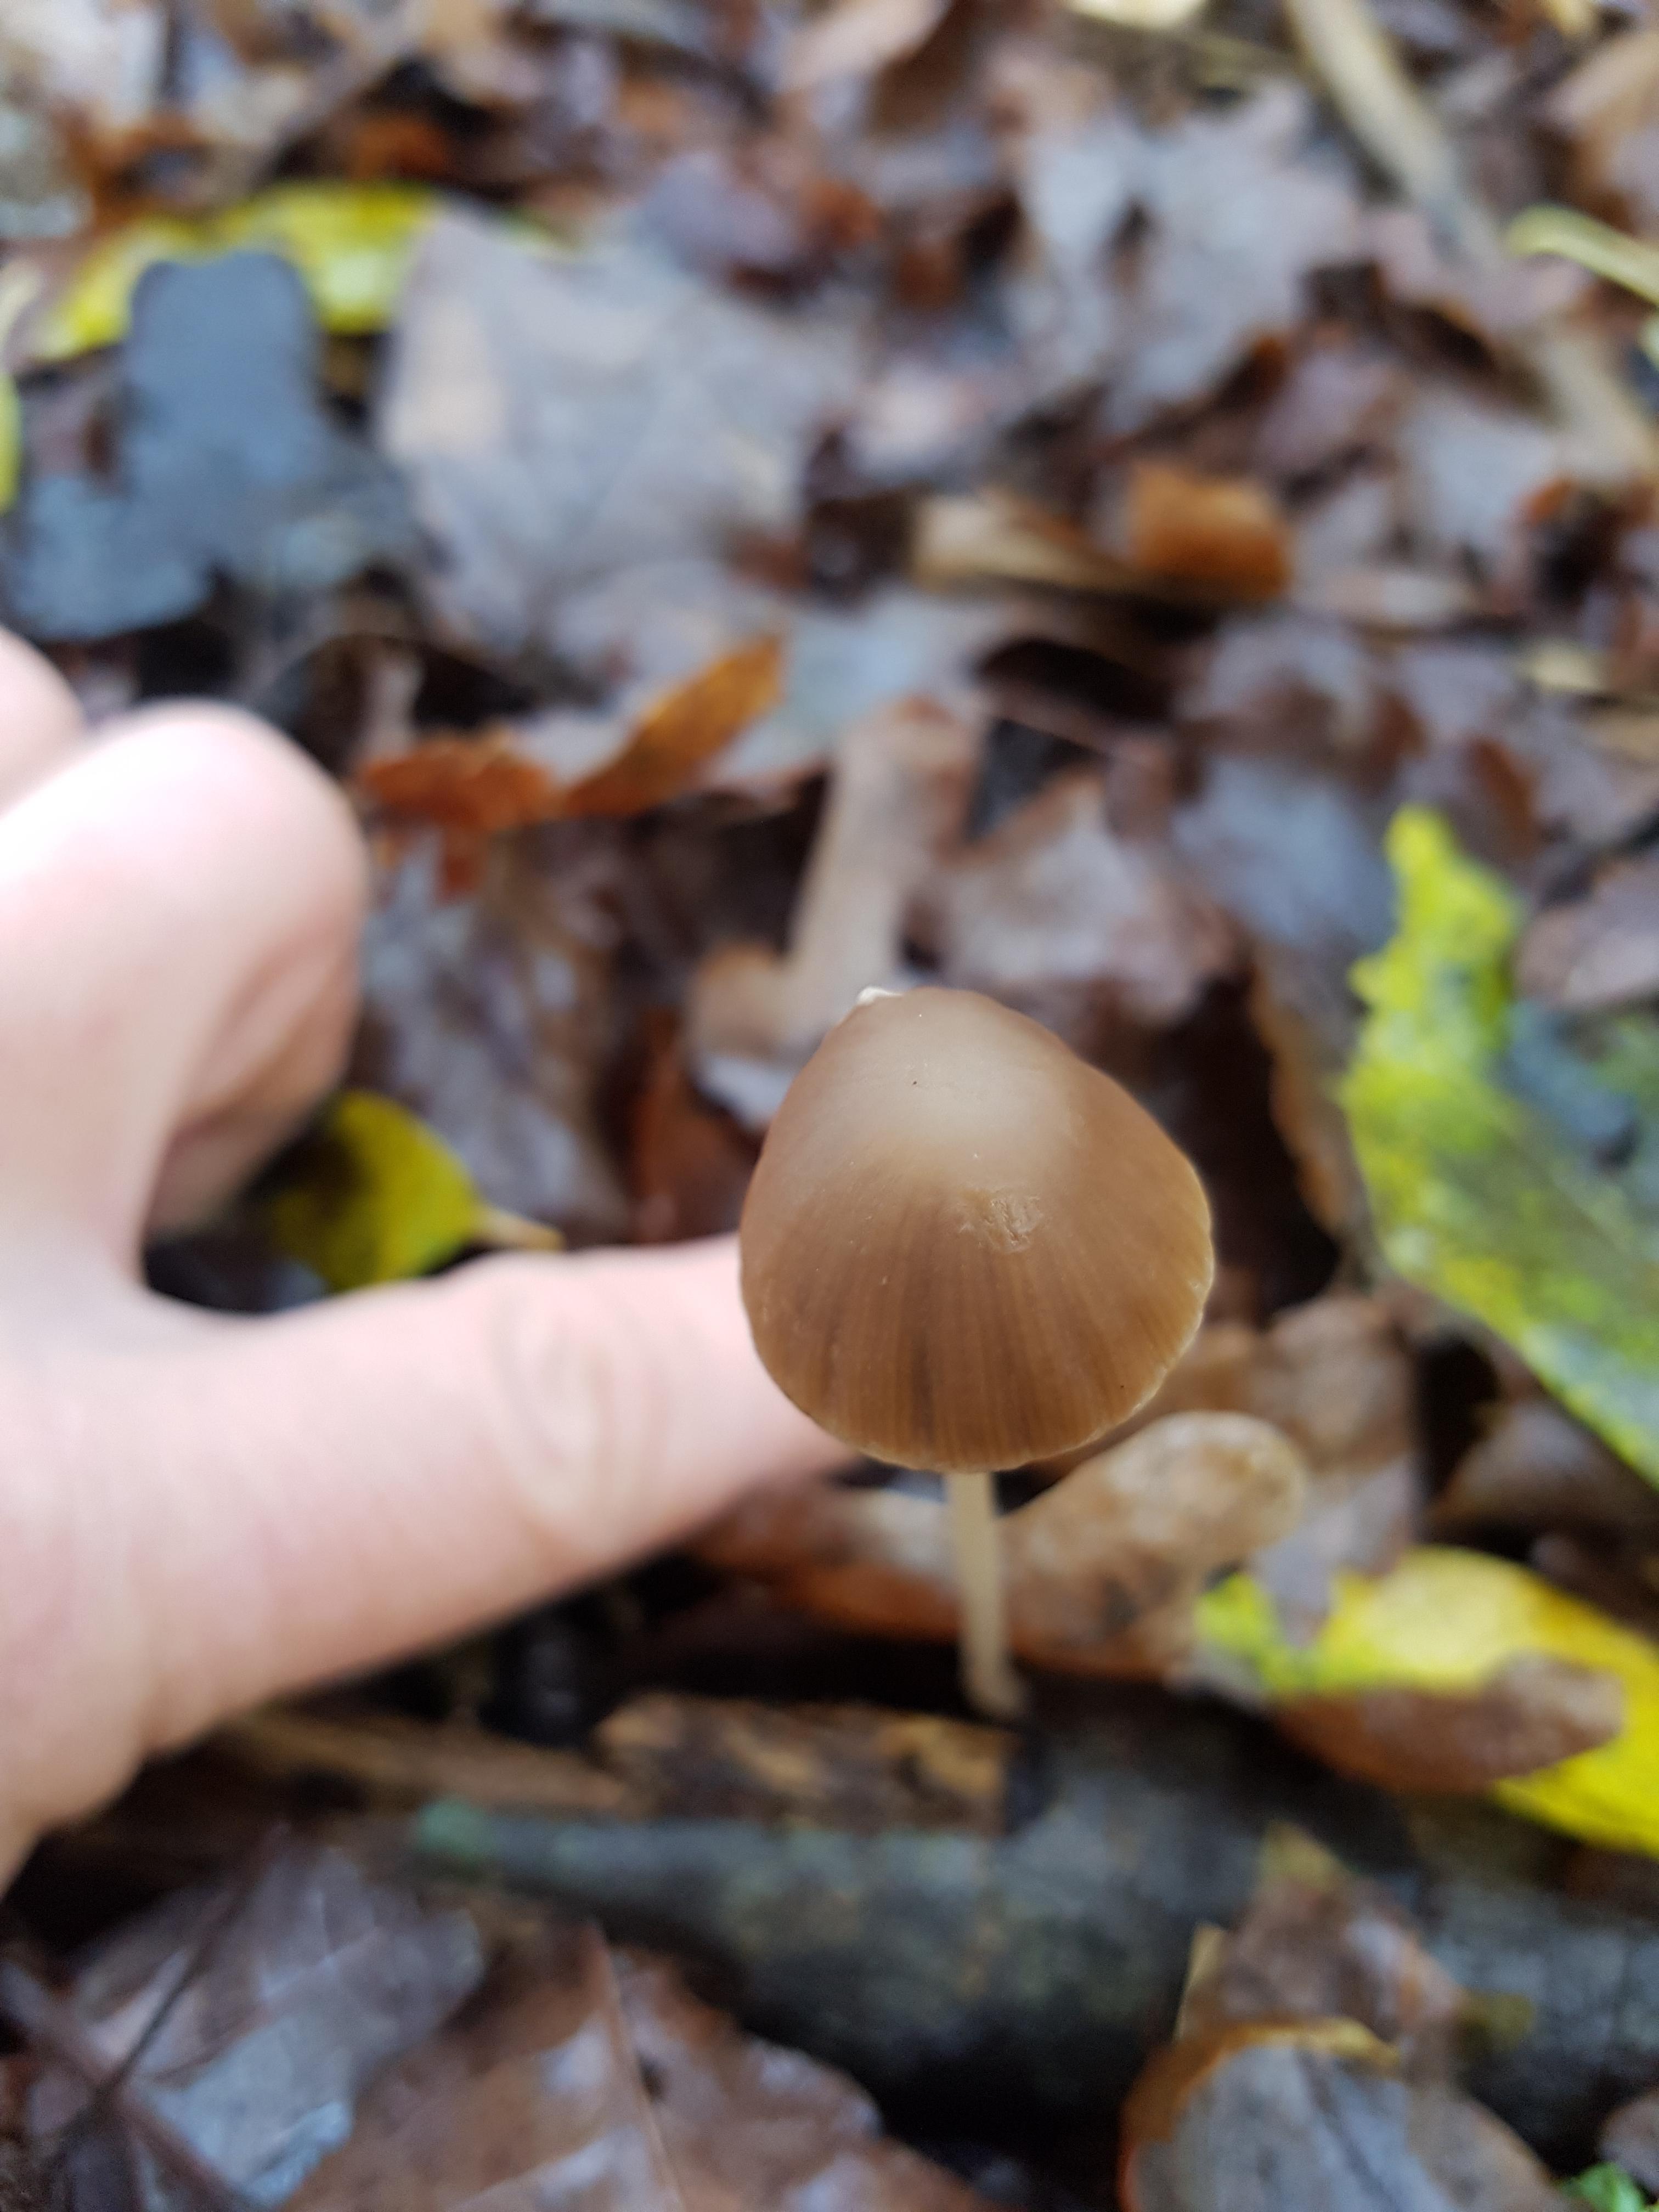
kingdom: Fungi
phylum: Basidiomycota
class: Agaricomycetes
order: Agaricales
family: Psathyrellaceae
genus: Psathyrella
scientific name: Psathyrella
